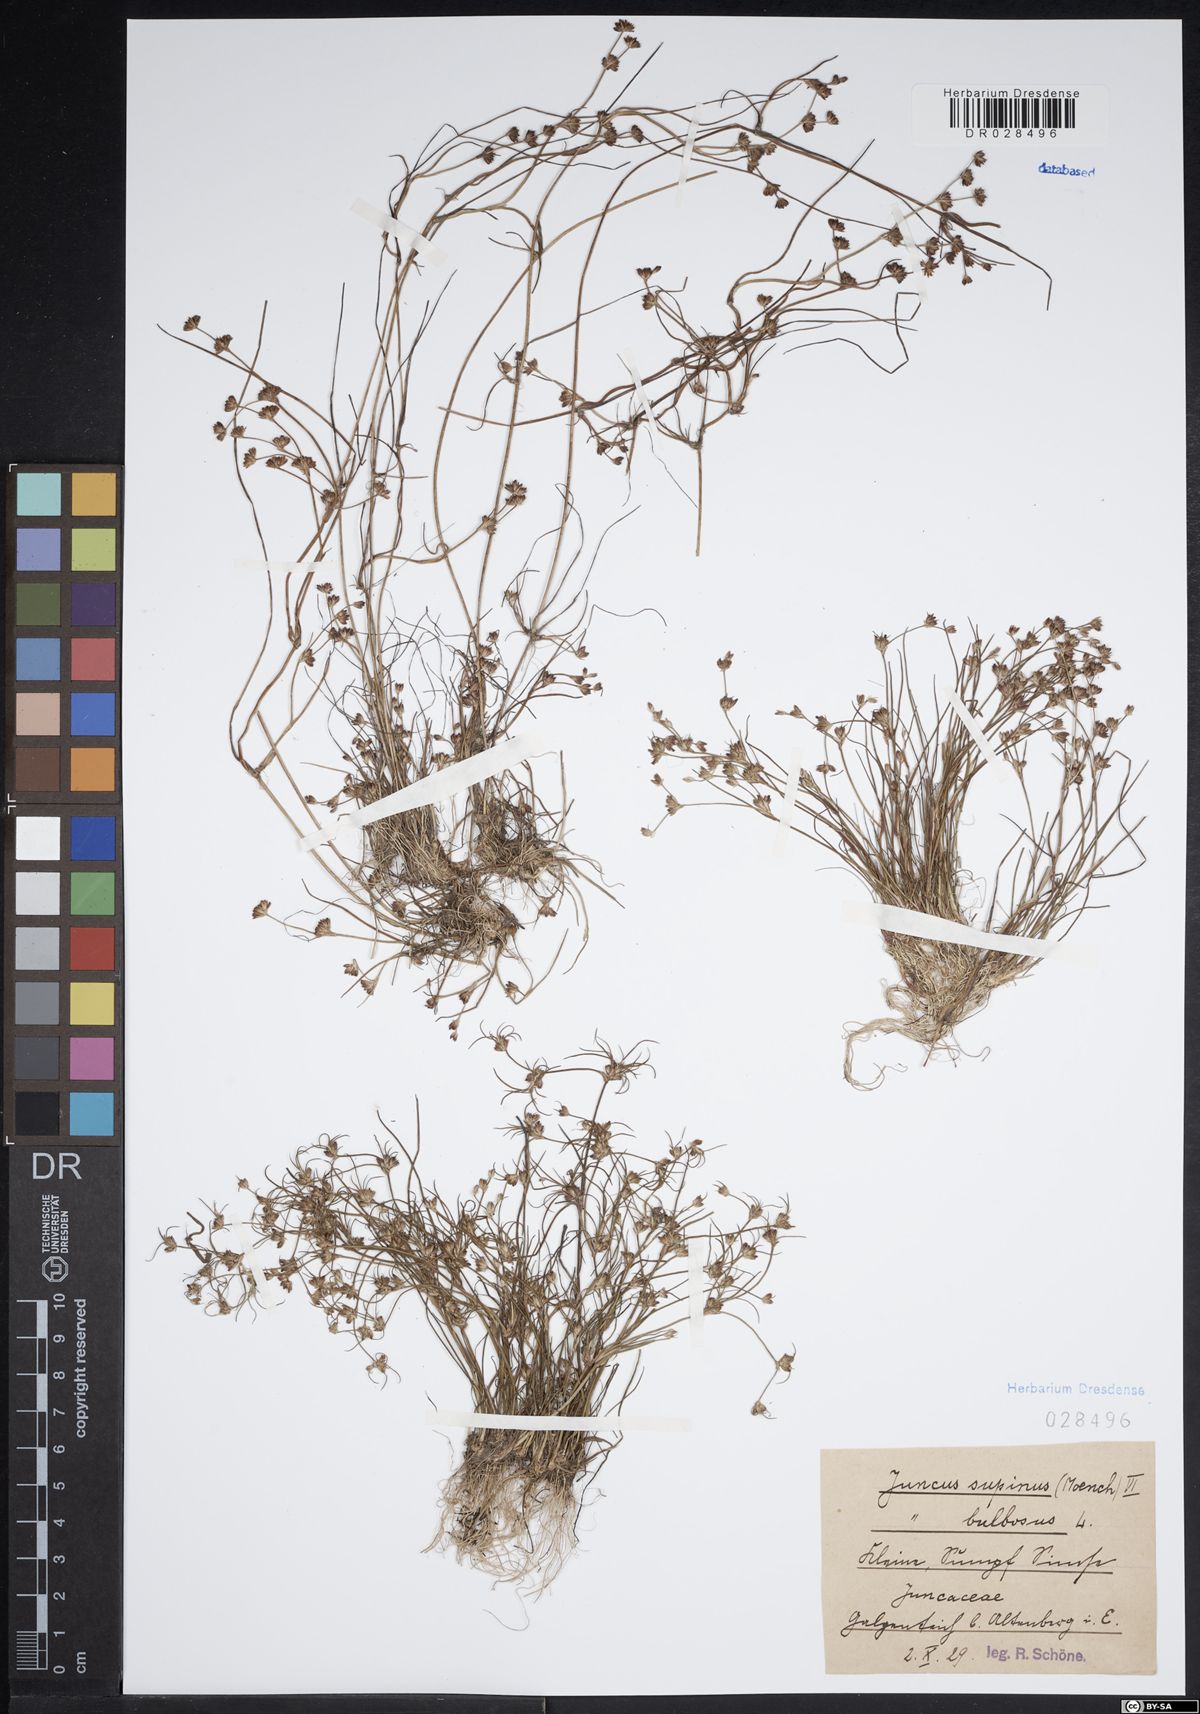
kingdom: Plantae
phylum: Tracheophyta
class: Liliopsida
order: Poales
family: Juncaceae
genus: Juncus
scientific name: Juncus bulbosus
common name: Bulbous rush
